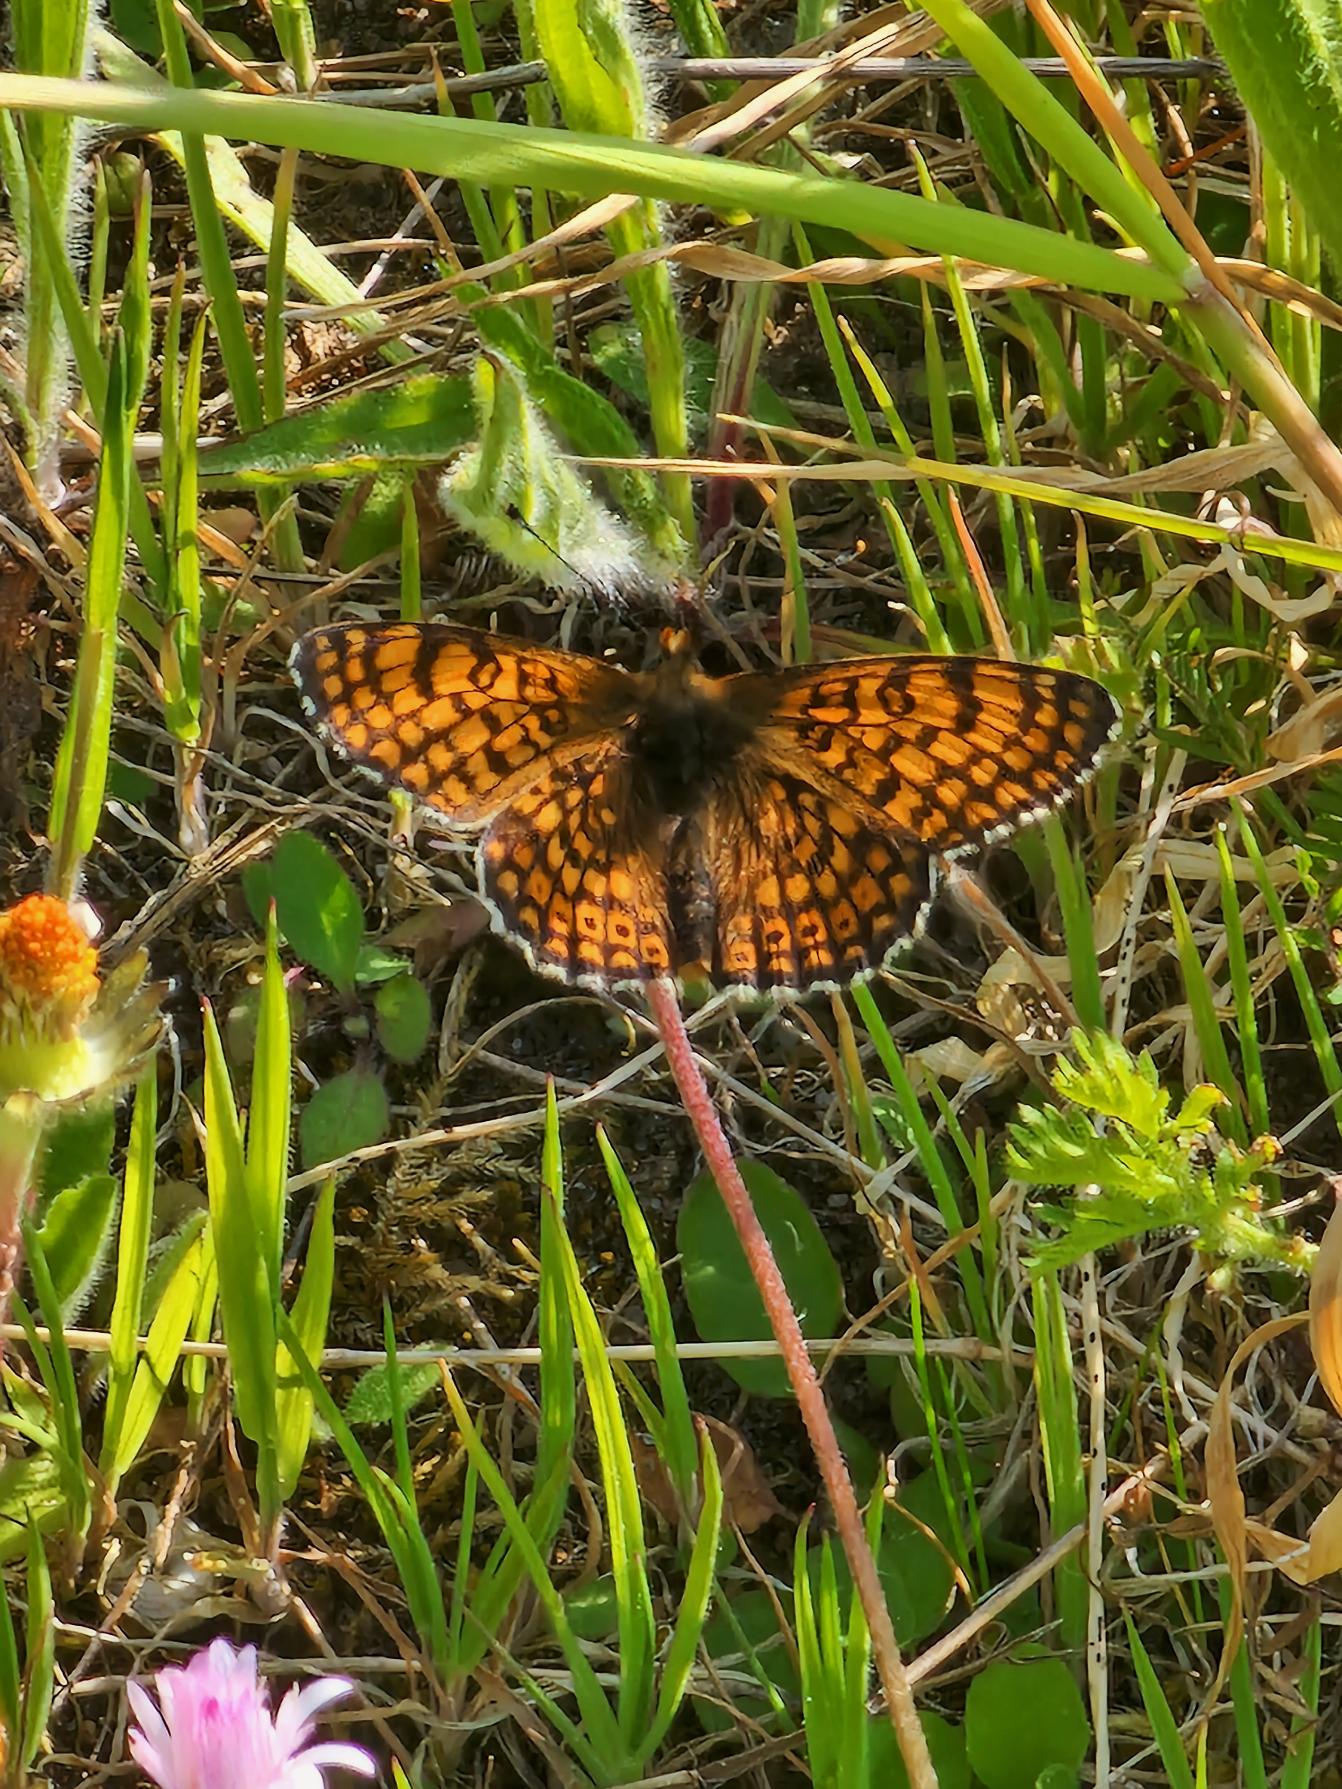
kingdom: Animalia
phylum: Arthropoda
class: Insecta
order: Lepidoptera
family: Nymphalidae
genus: Melitaea
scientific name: Melitaea cinxia
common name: Okkergul pletvinge
